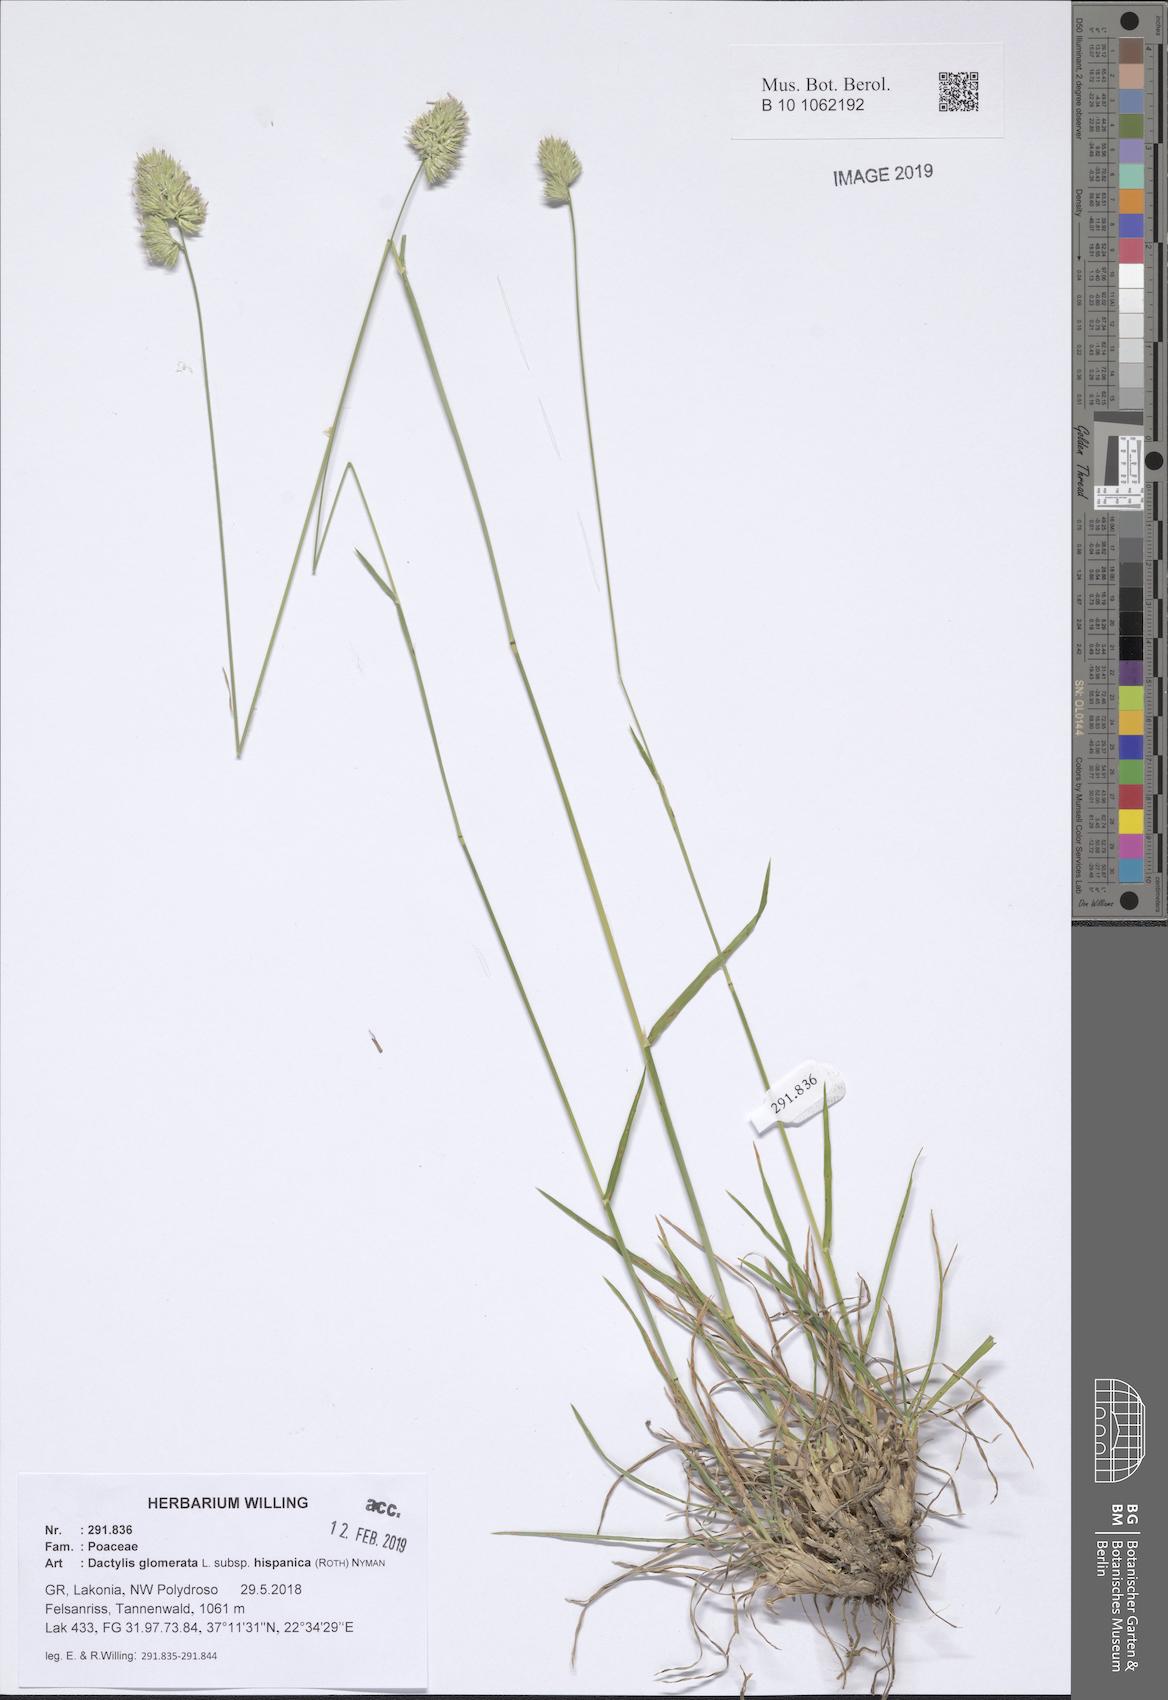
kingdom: Plantae
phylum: Tracheophyta
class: Liliopsida
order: Poales
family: Poaceae
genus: Dactylis
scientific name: Dactylis glomerata
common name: Orchardgrass
